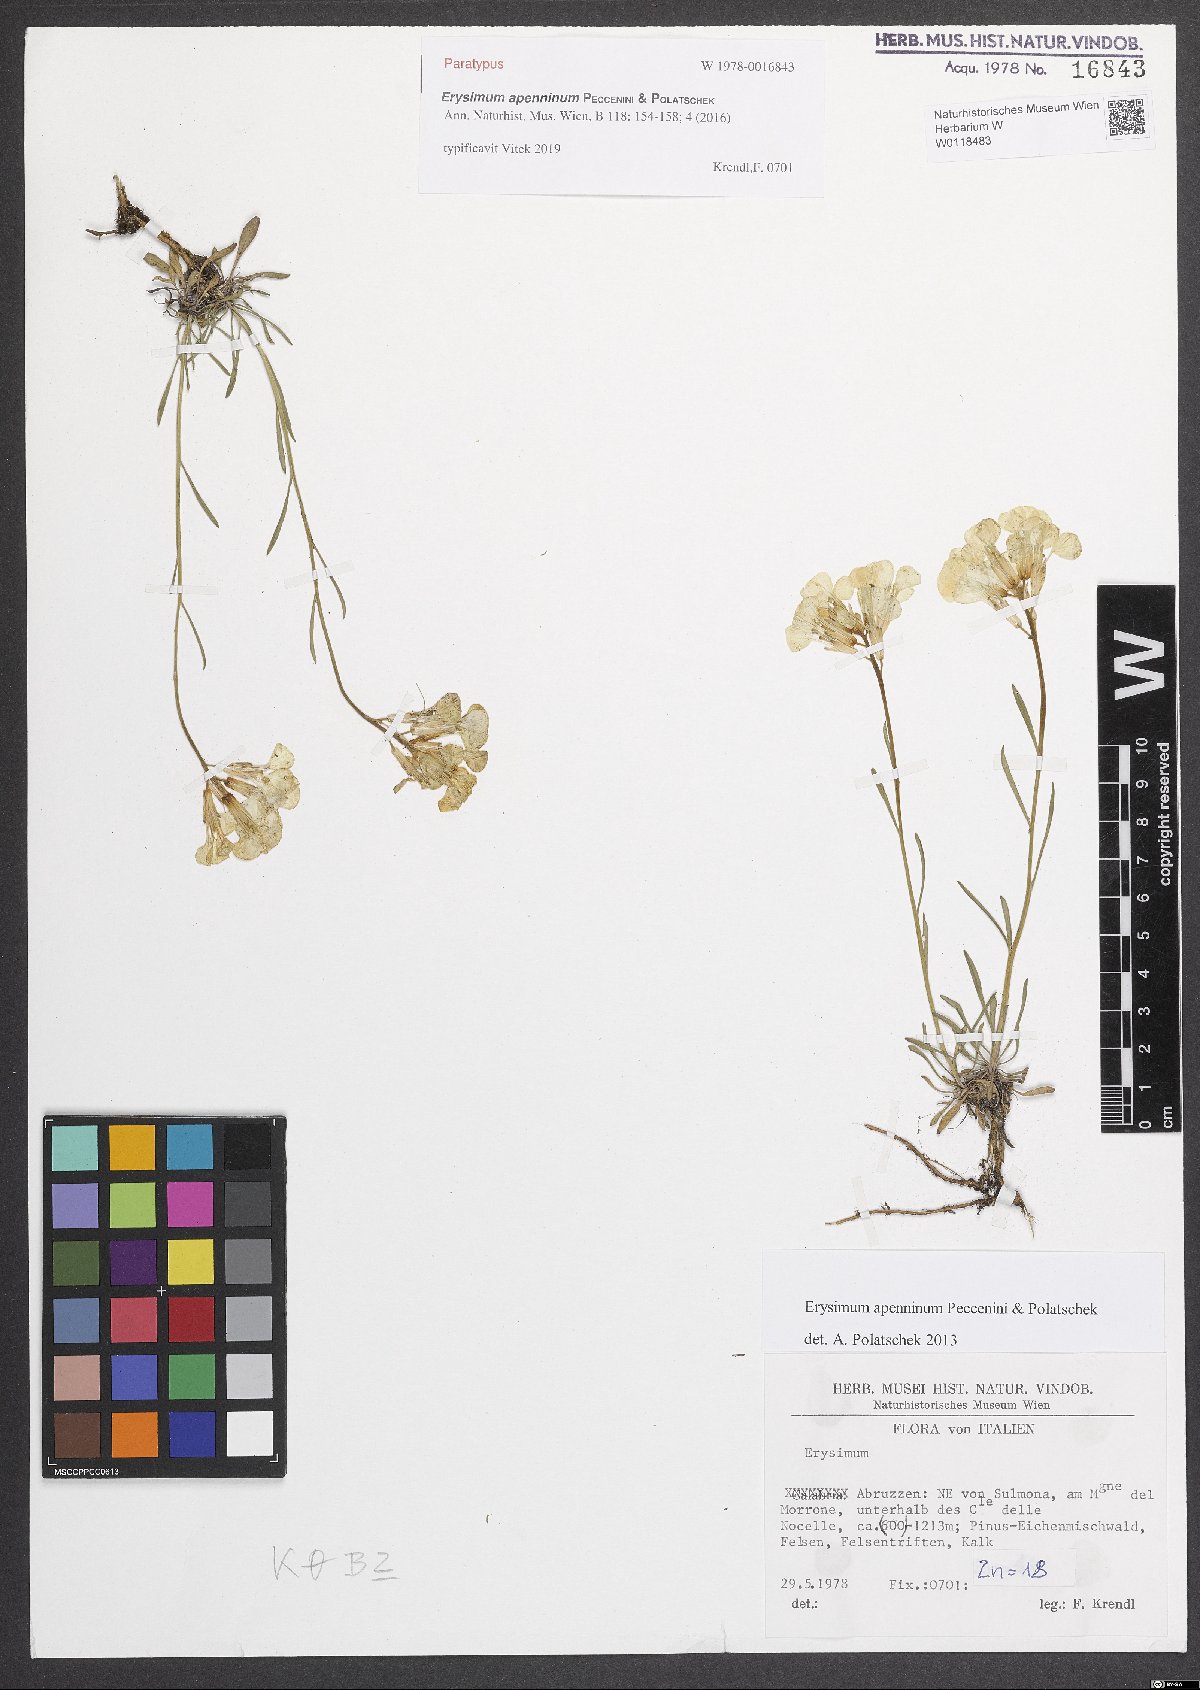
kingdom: Plantae
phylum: Tracheophyta
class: Magnoliopsida
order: Brassicales
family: Brassicaceae
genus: Erysimum
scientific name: Erysimum apenninum
